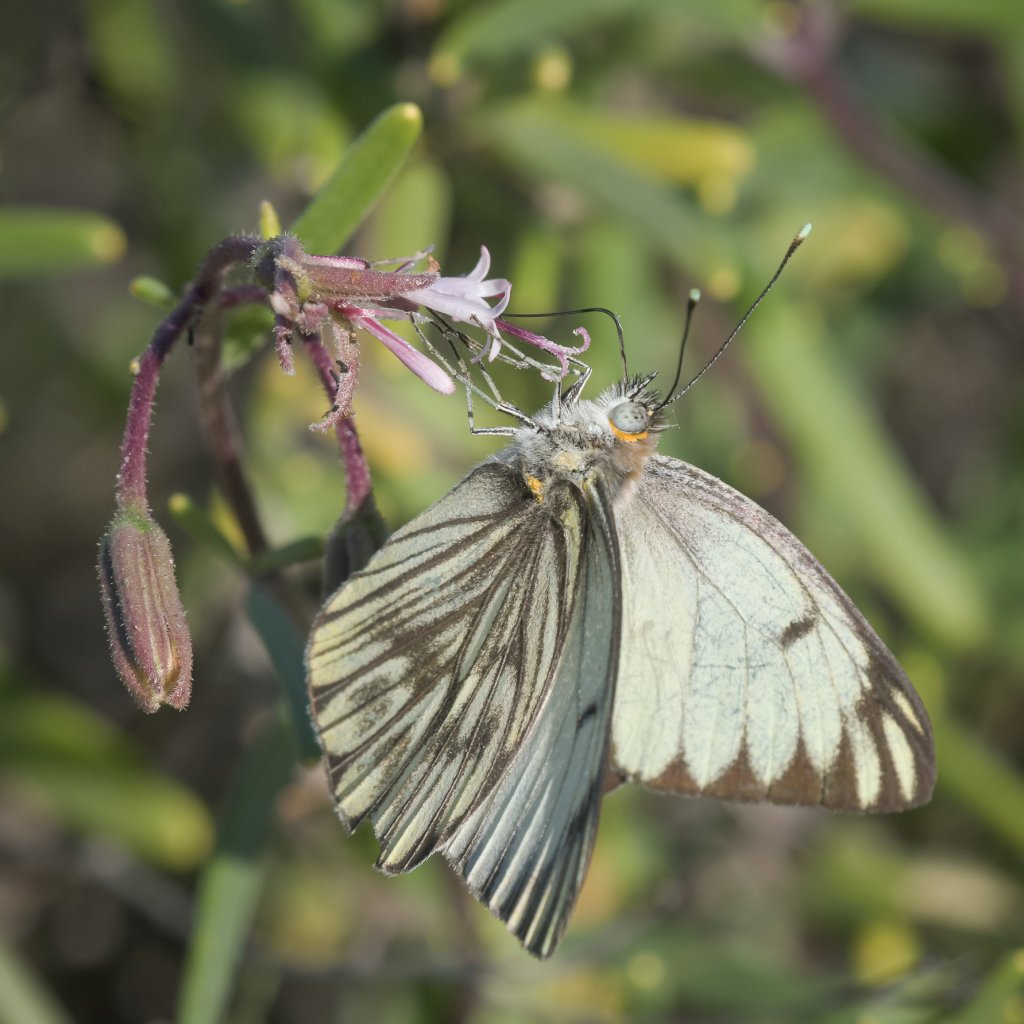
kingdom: Animalia
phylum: Arthropoda
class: Insecta
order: Lepidoptera
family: Pieridae
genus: Ascia
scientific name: Ascia monuste
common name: Great Southern White
